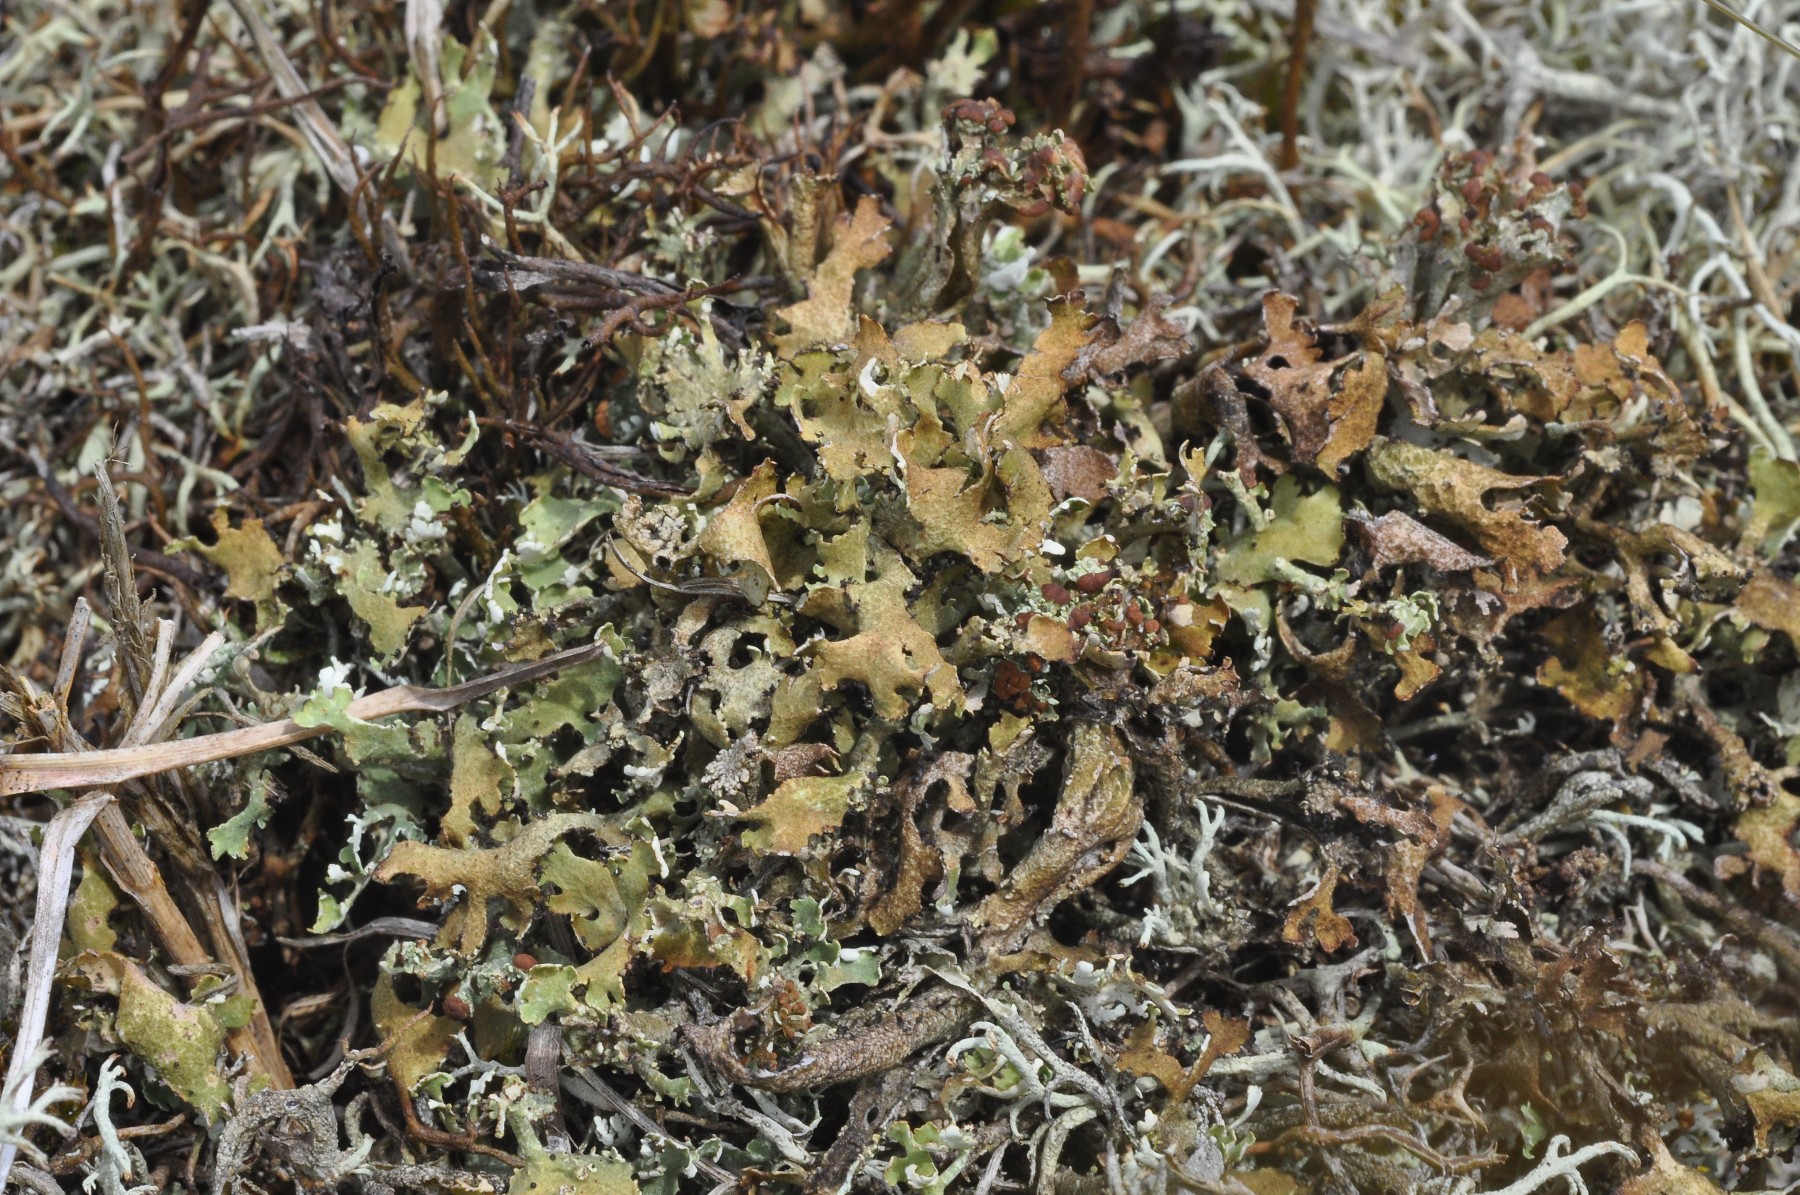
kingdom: Fungi
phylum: Ascomycota
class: Lecanoromycetes
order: Lecanorales
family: Cladoniaceae
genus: Cladonia
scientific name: Cladonia foliacea
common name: fliget bægerlav
